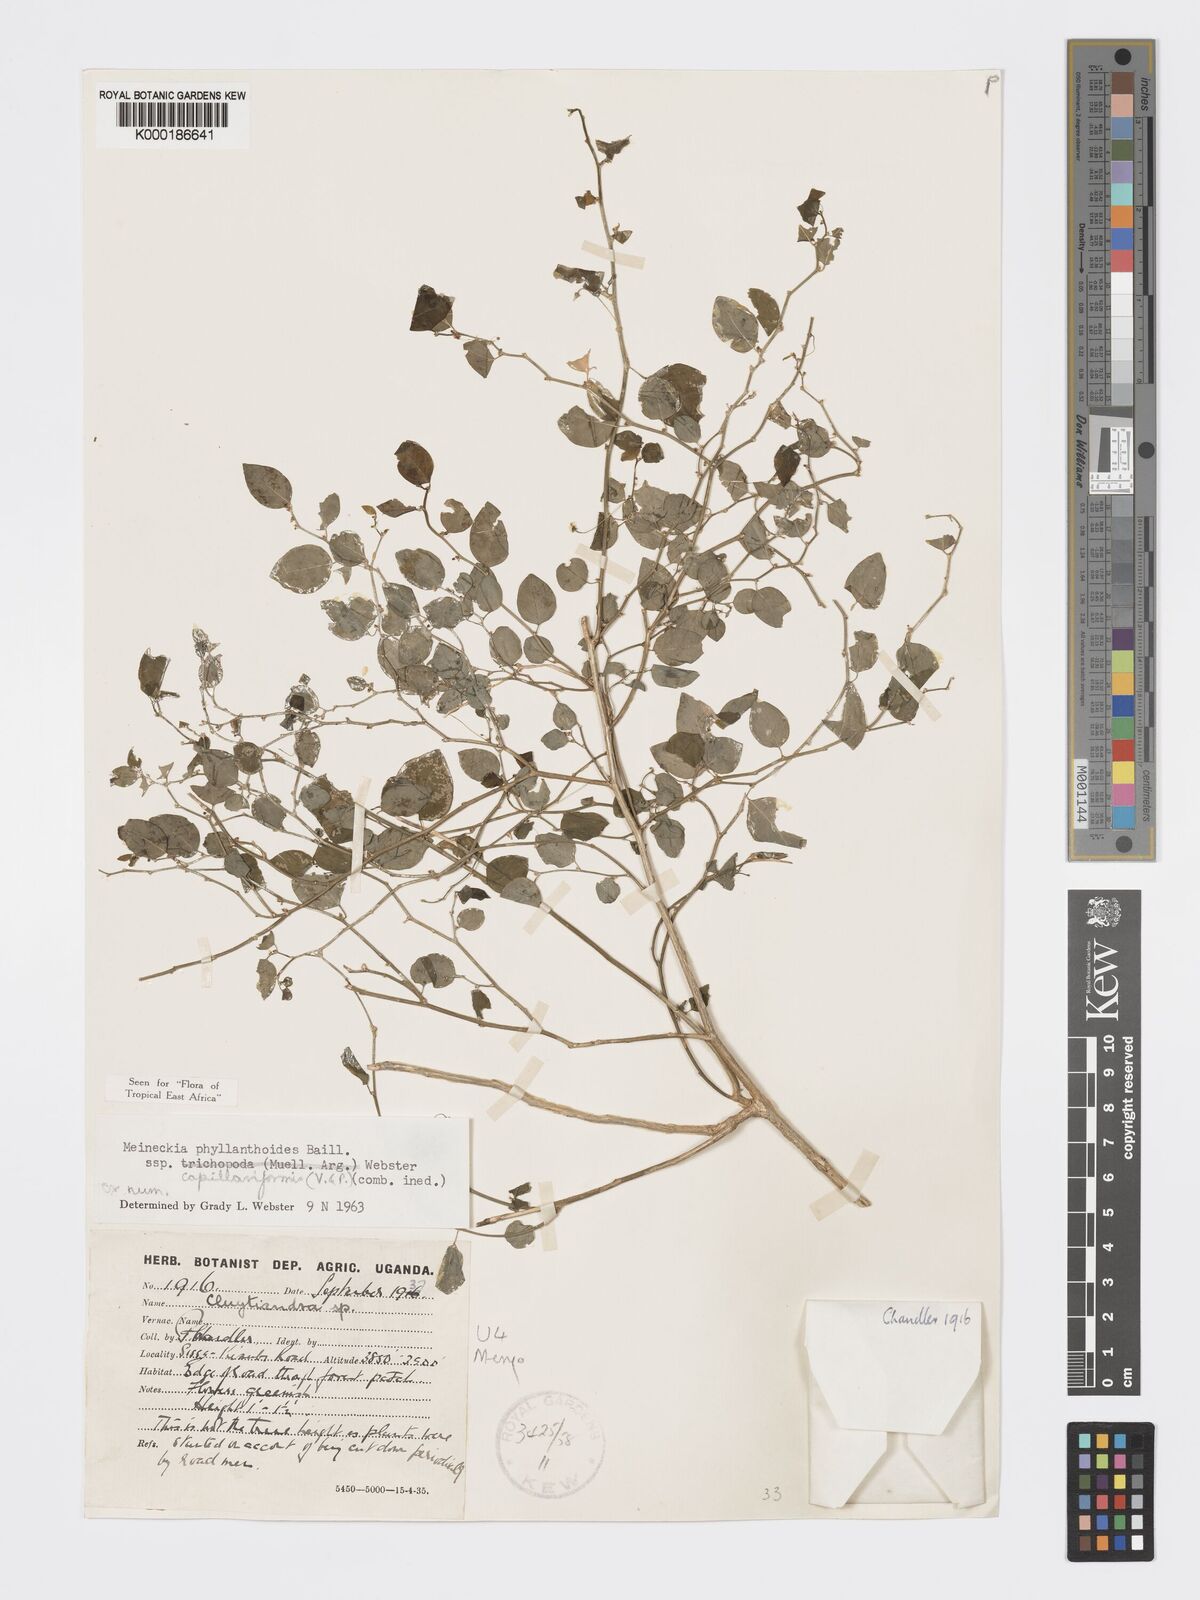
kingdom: Plantae
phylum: Tracheophyta
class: Magnoliopsida
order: Malpighiales
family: Phyllanthaceae
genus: Meineckia
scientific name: Meineckia phyllanthoides
